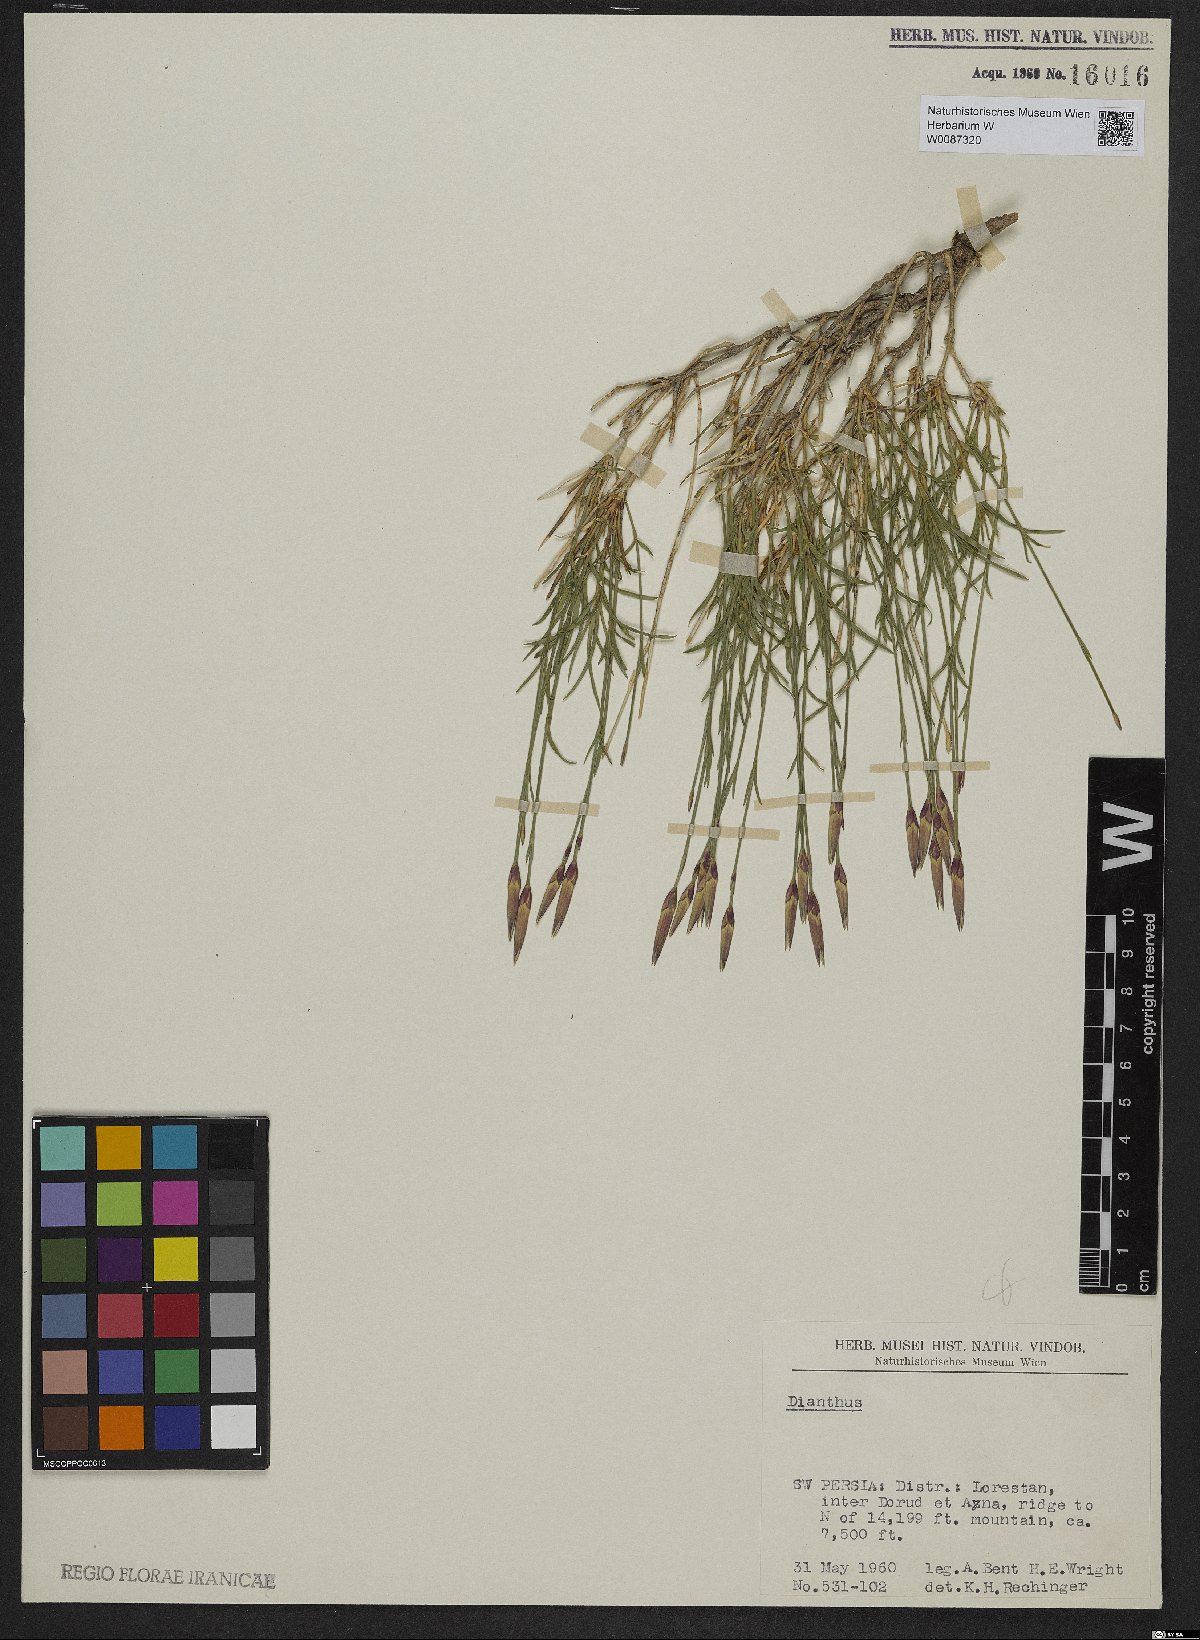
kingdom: Plantae
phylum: Tracheophyta
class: Magnoliopsida
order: Caryophyllales
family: Caryophyllaceae
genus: Dianthus
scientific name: Dianthus
